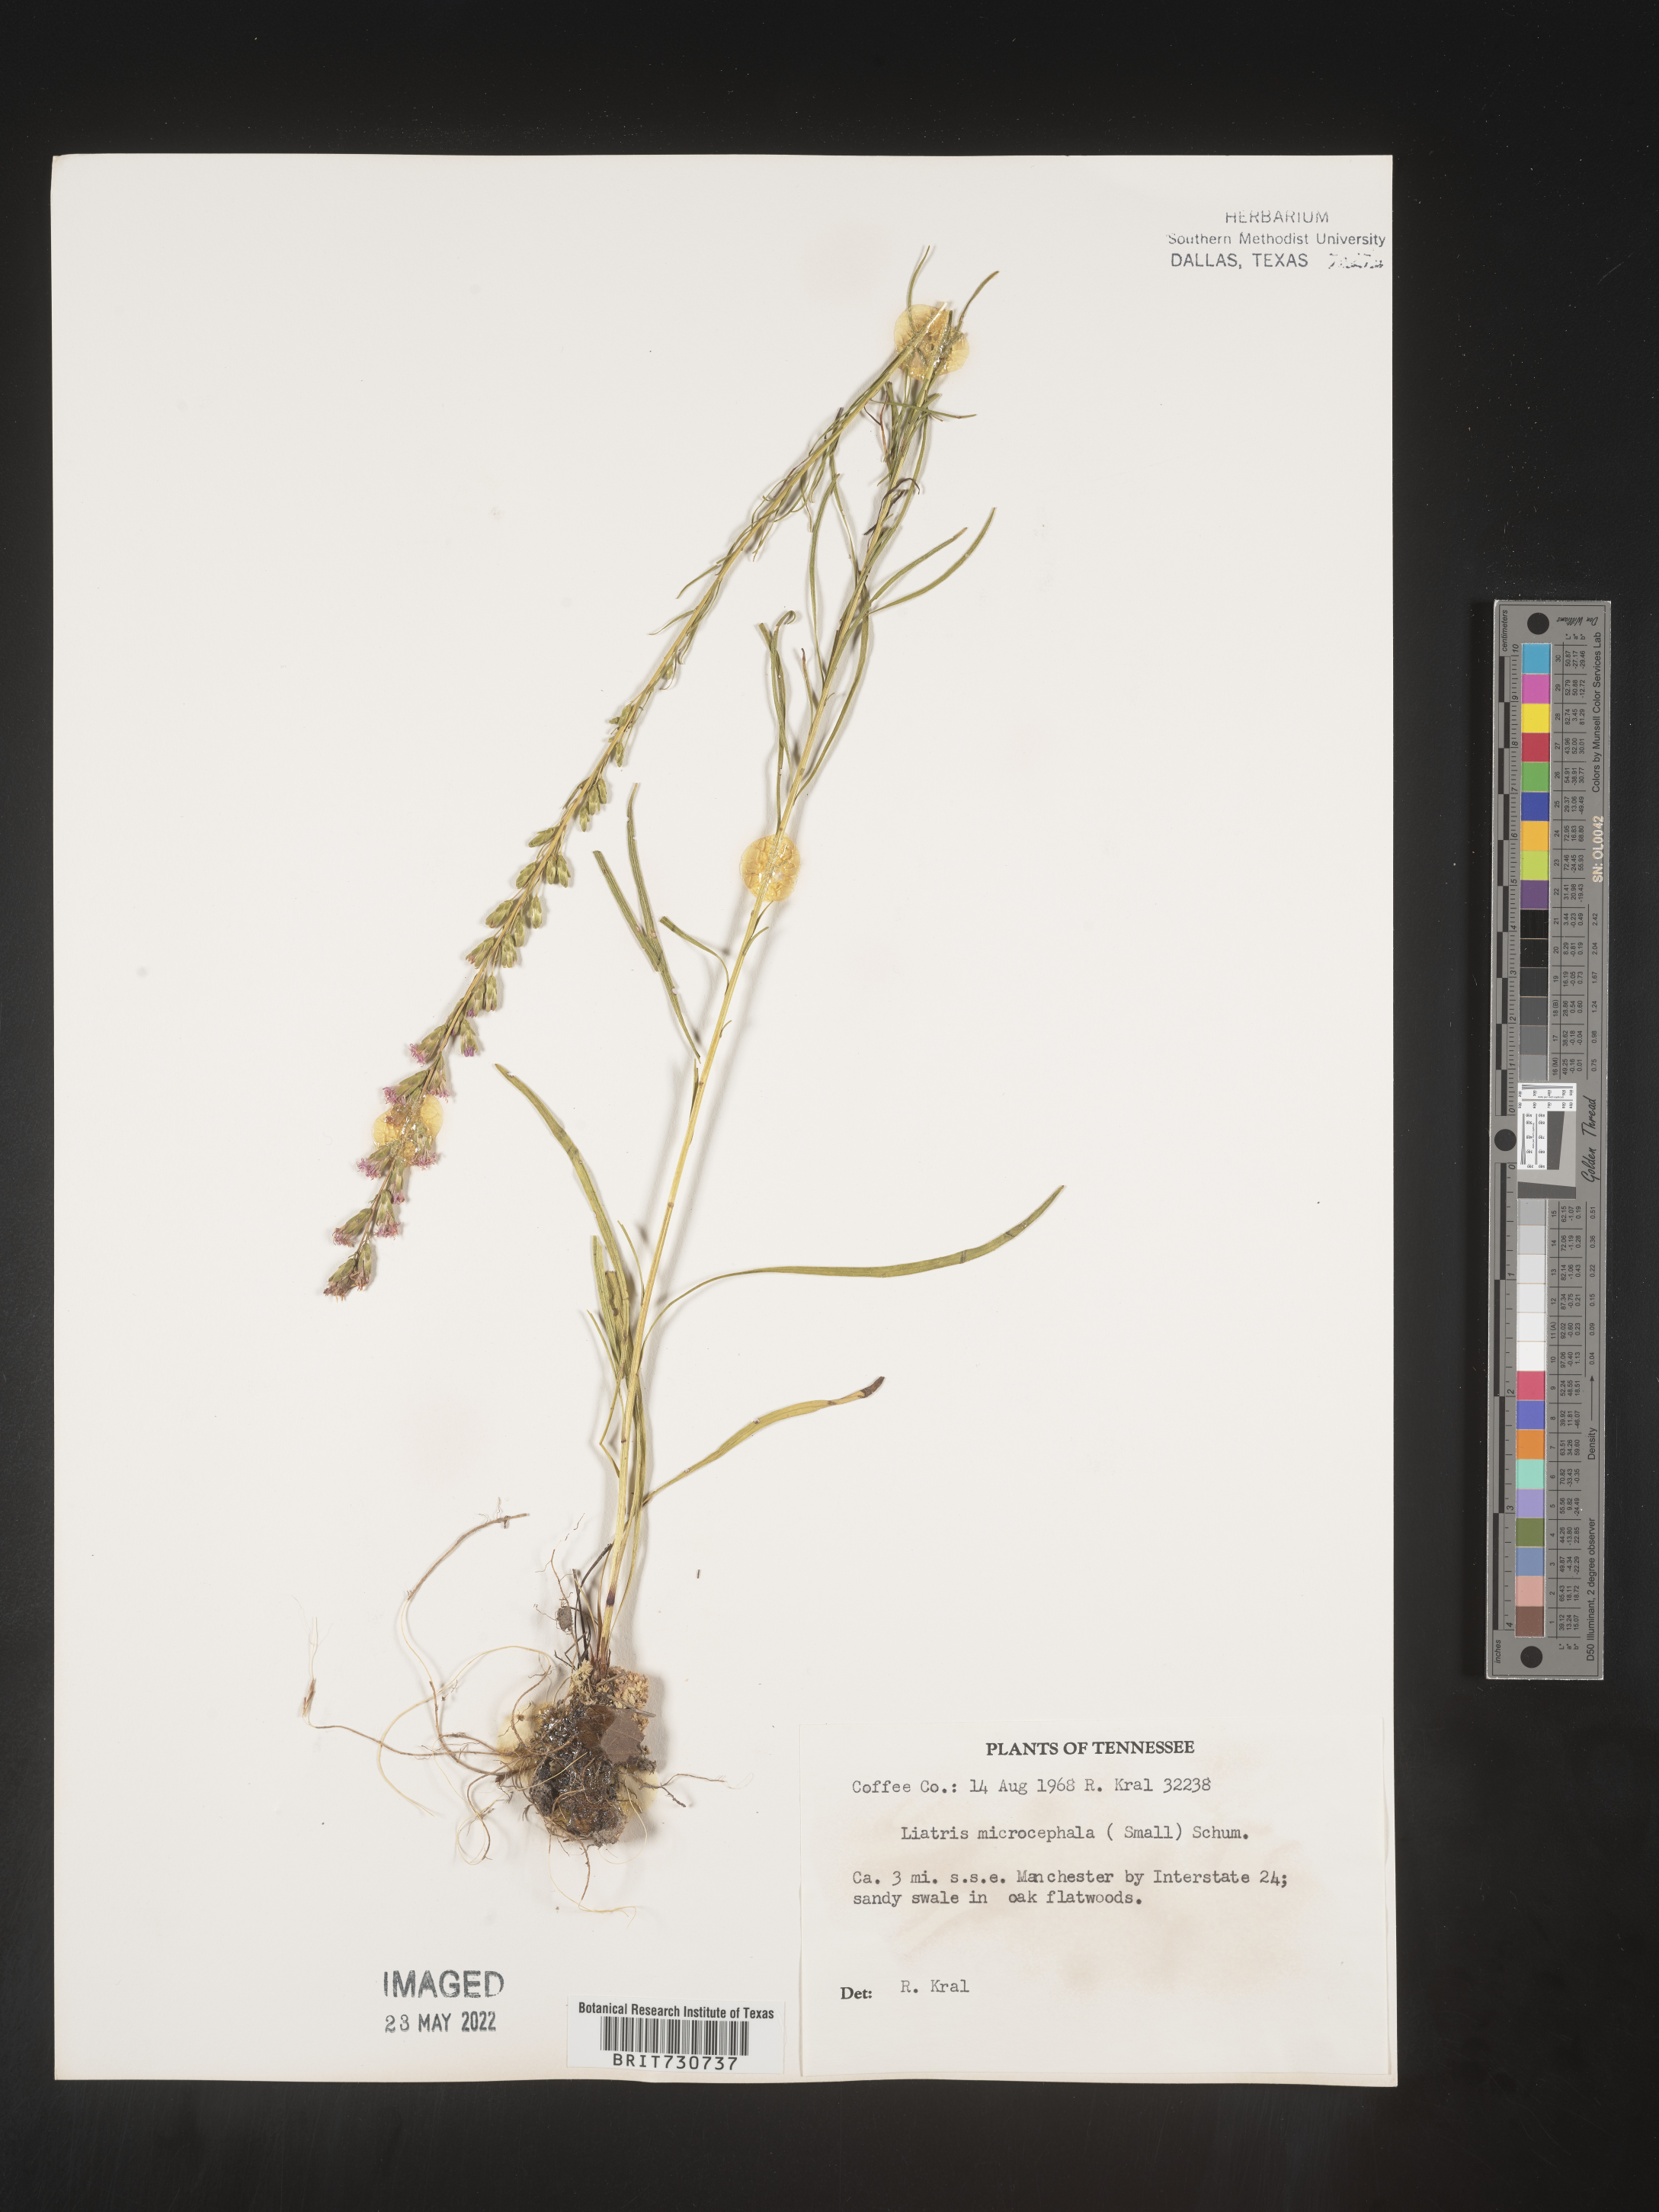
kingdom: Plantae
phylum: Tracheophyta
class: Magnoliopsida
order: Asterales
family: Asteraceae
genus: Liatris
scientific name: Liatris microcephala
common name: Small-head gayfeather
